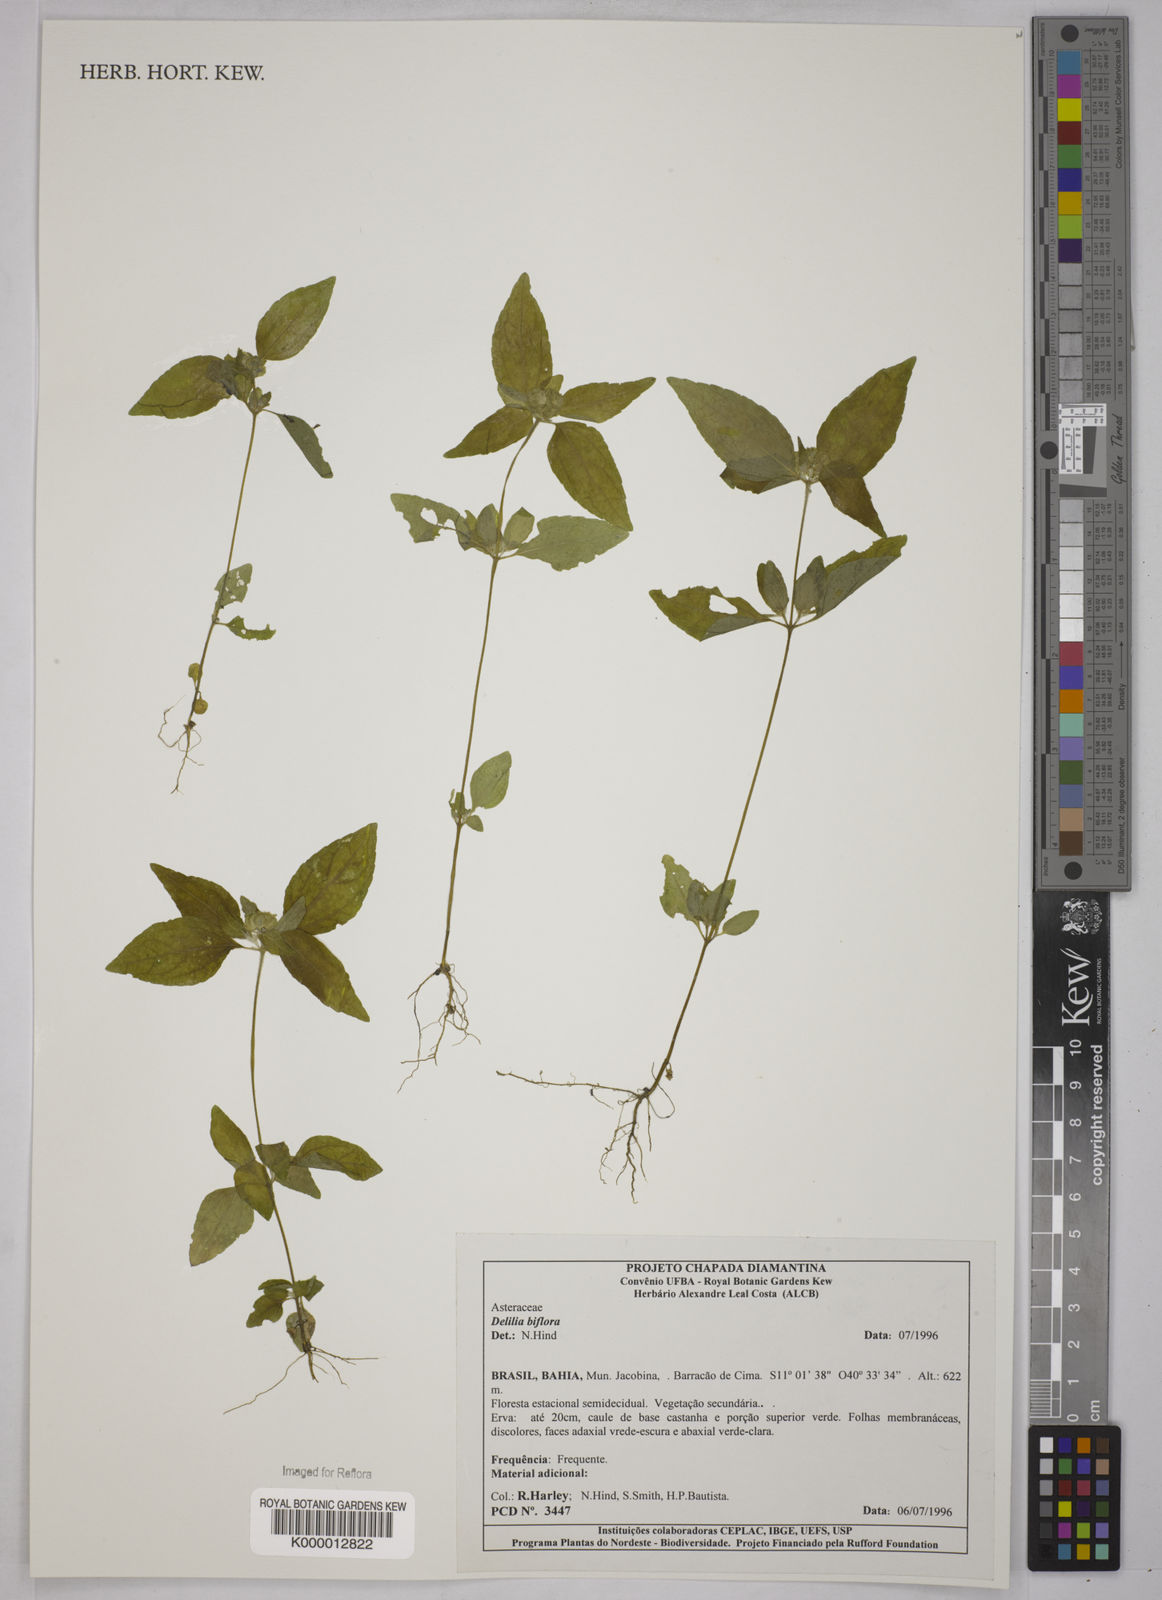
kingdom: Plantae
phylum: Tracheophyta
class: Magnoliopsida
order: Asterales
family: Asteraceae
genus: Delilia
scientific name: Delilia biflora
